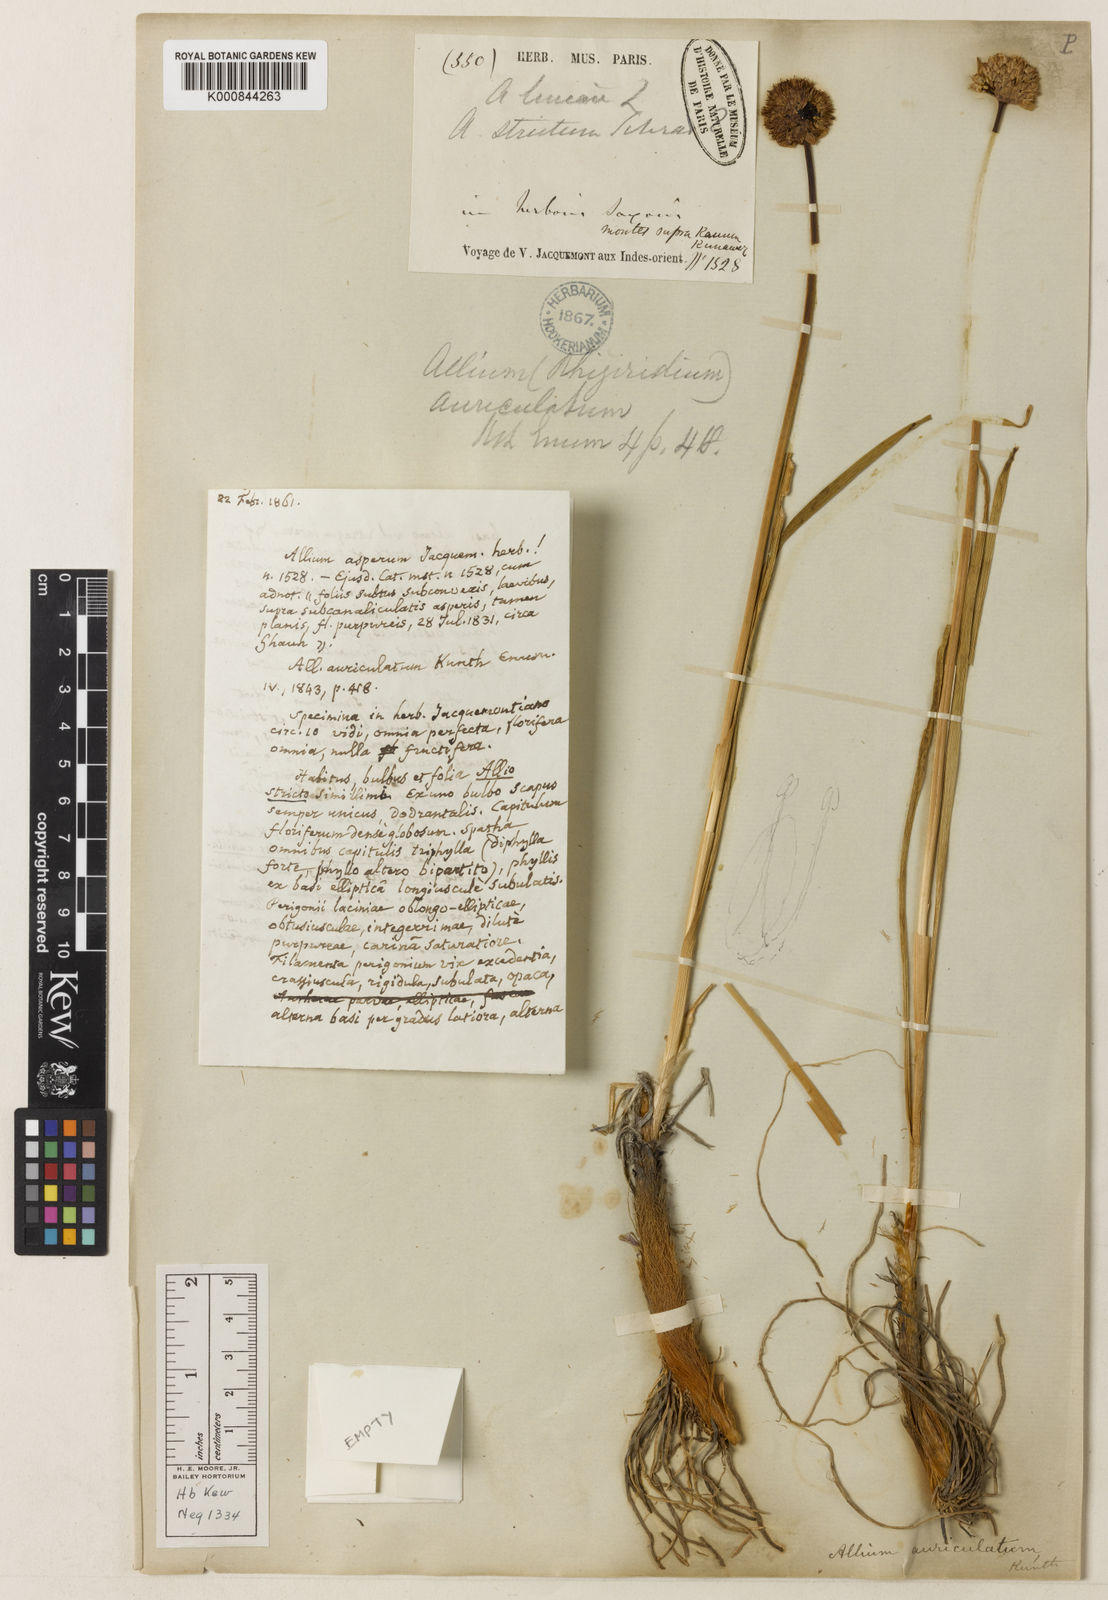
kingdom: Plantae
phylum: Tracheophyta
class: Liliopsida
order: Asparagales
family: Amaryllidaceae
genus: Allium
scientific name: Allium auriculatum
